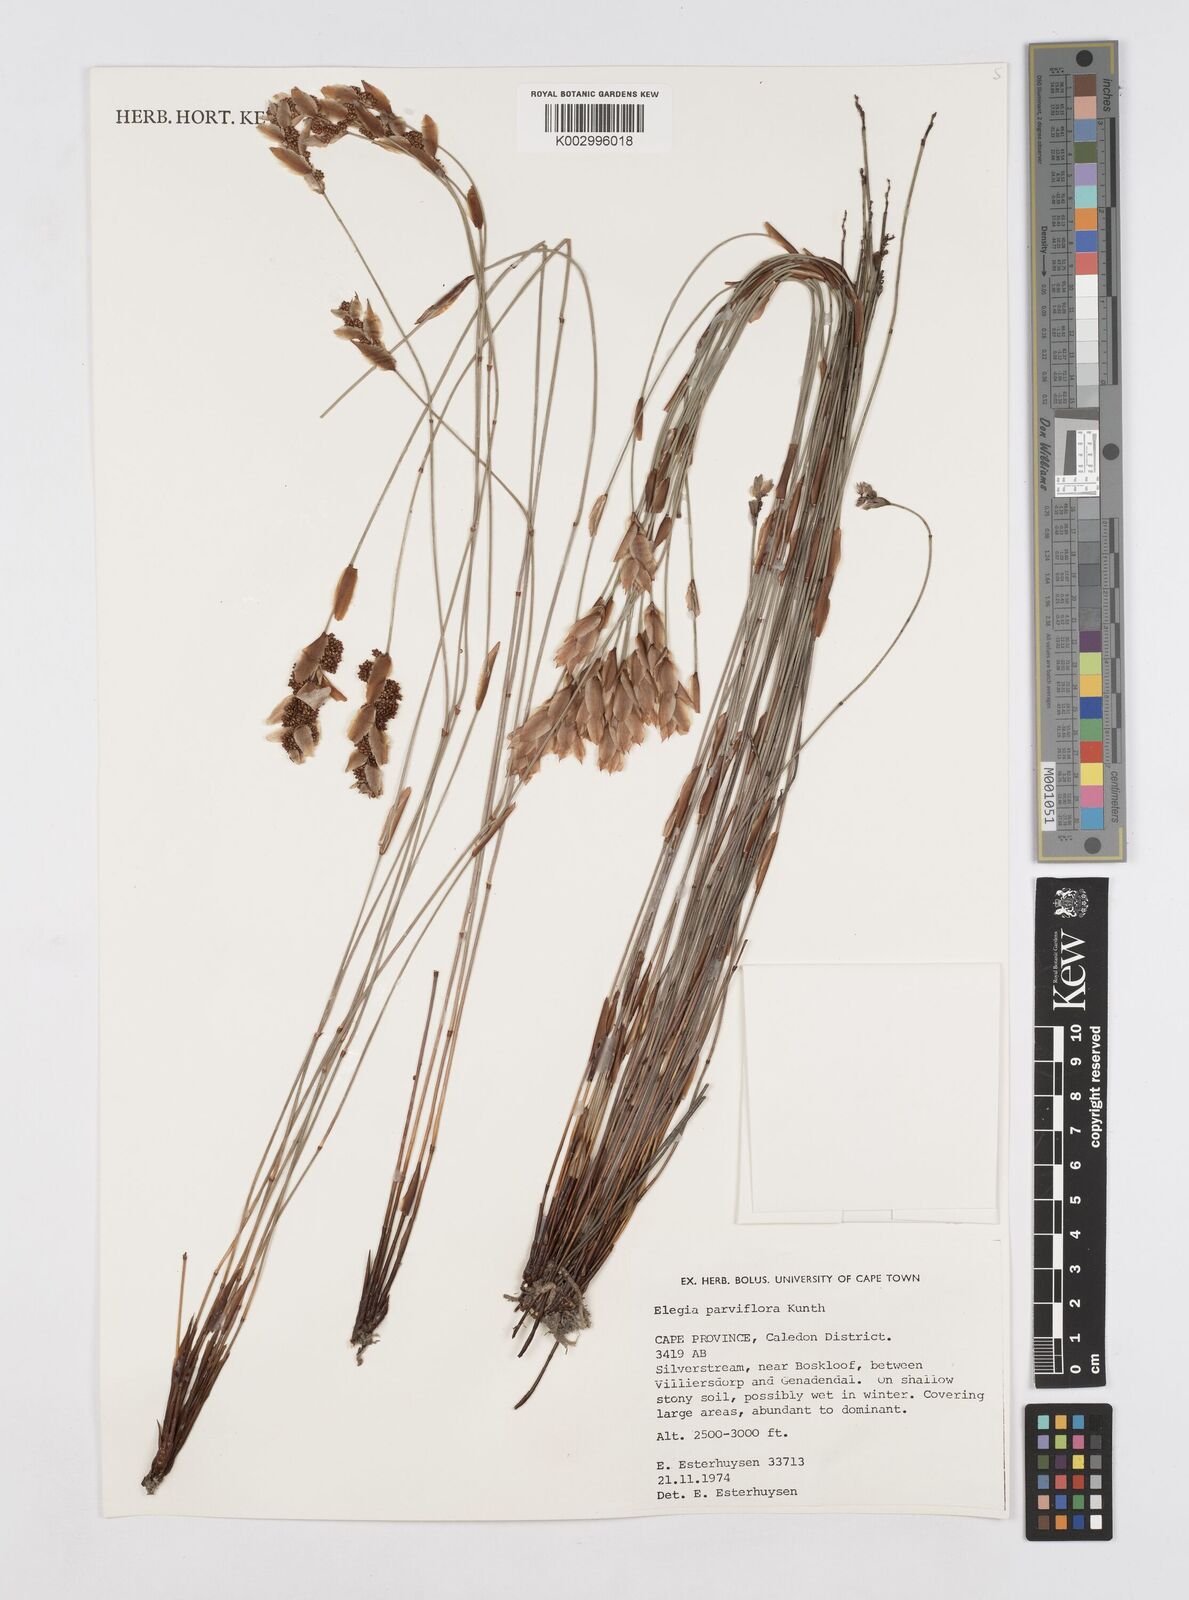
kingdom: Plantae
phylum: Tracheophyta
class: Liliopsida
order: Poales
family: Restionaceae
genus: Cannomois
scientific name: Cannomois parviflora
